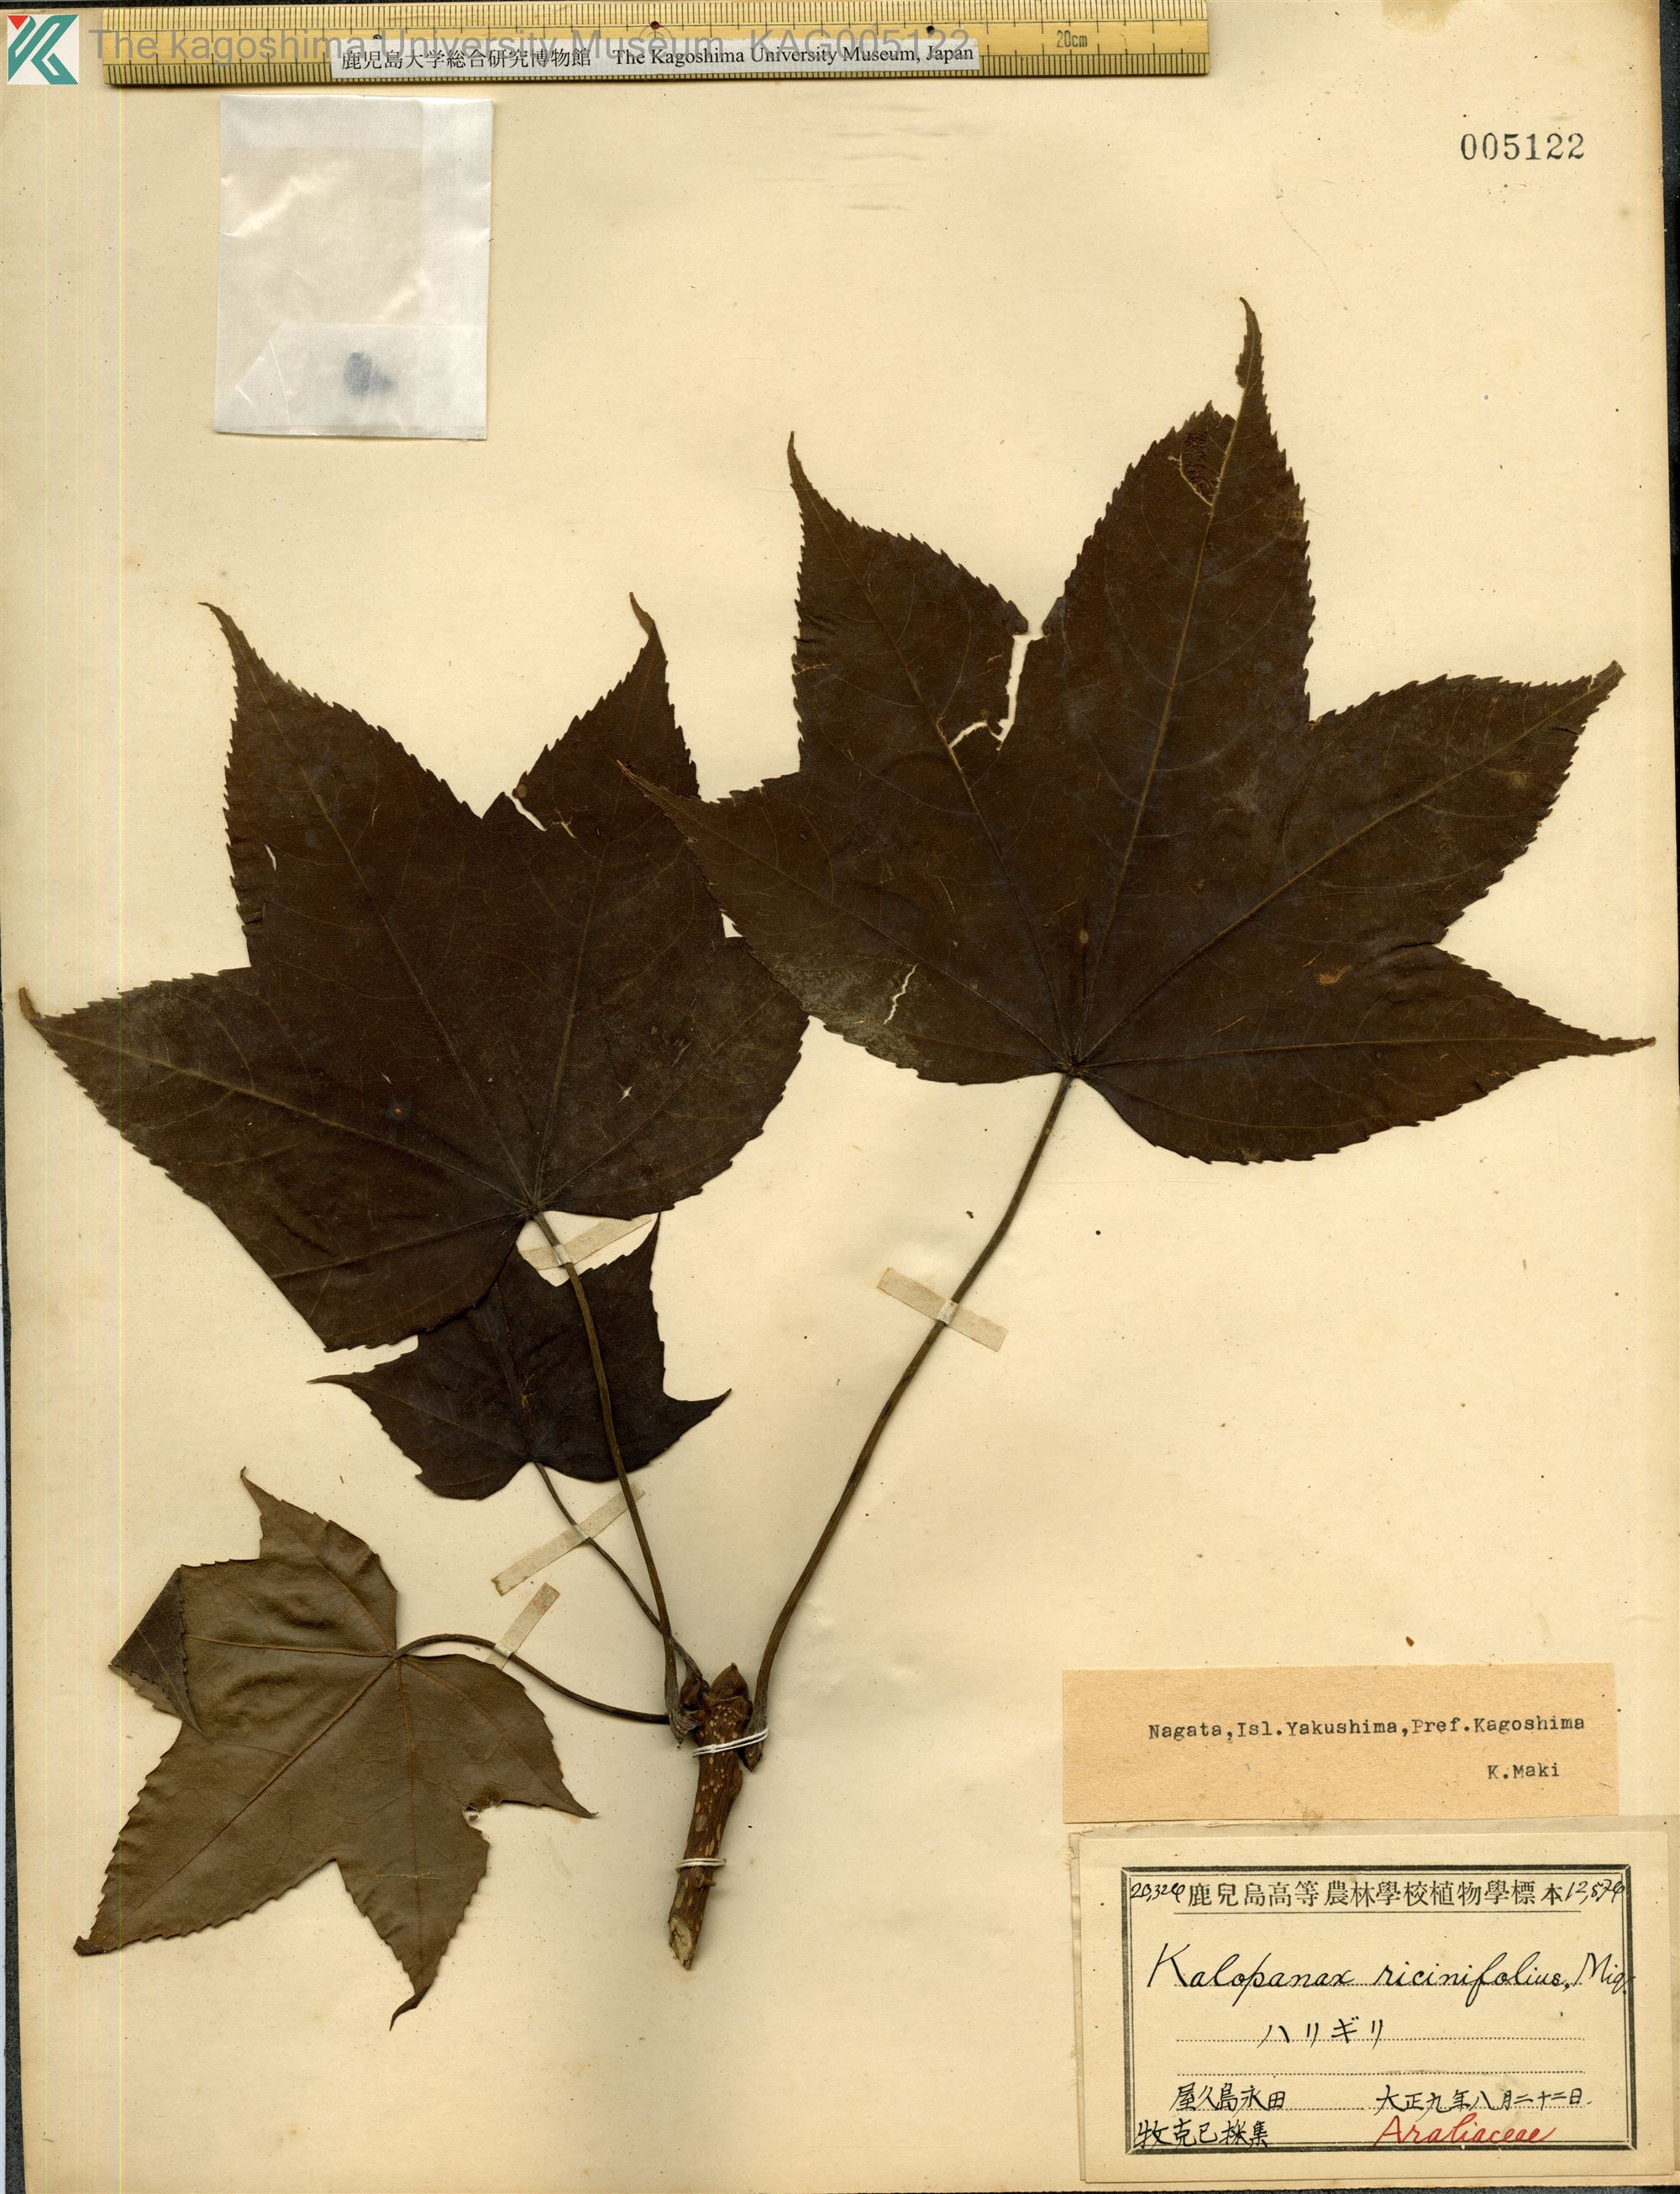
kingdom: Plantae
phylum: Tracheophyta
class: Magnoliopsida
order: Apiales
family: Araliaceae
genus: Kalopanax
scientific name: Kalopanax septemlobus
